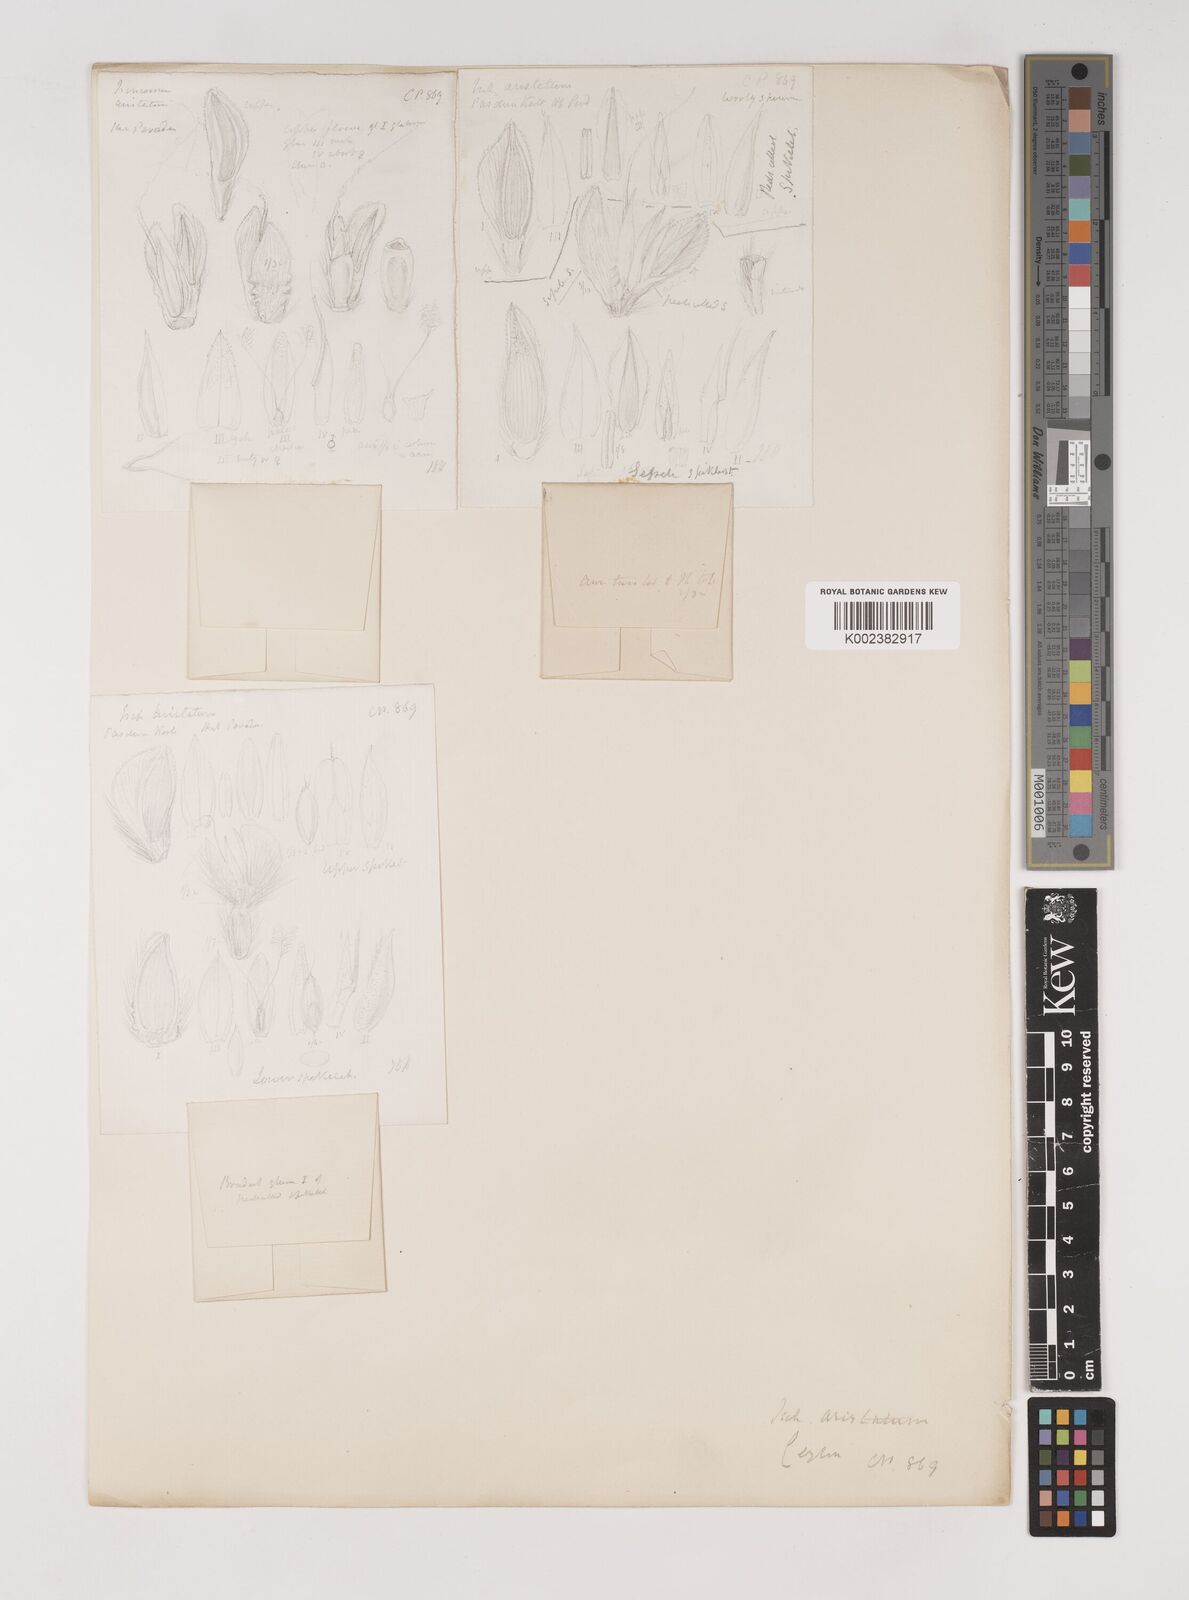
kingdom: Plantae
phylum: Tracheophyta
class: Liliopsida
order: Poales
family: Poaceae
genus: Ischaemum
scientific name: Ischaemum
